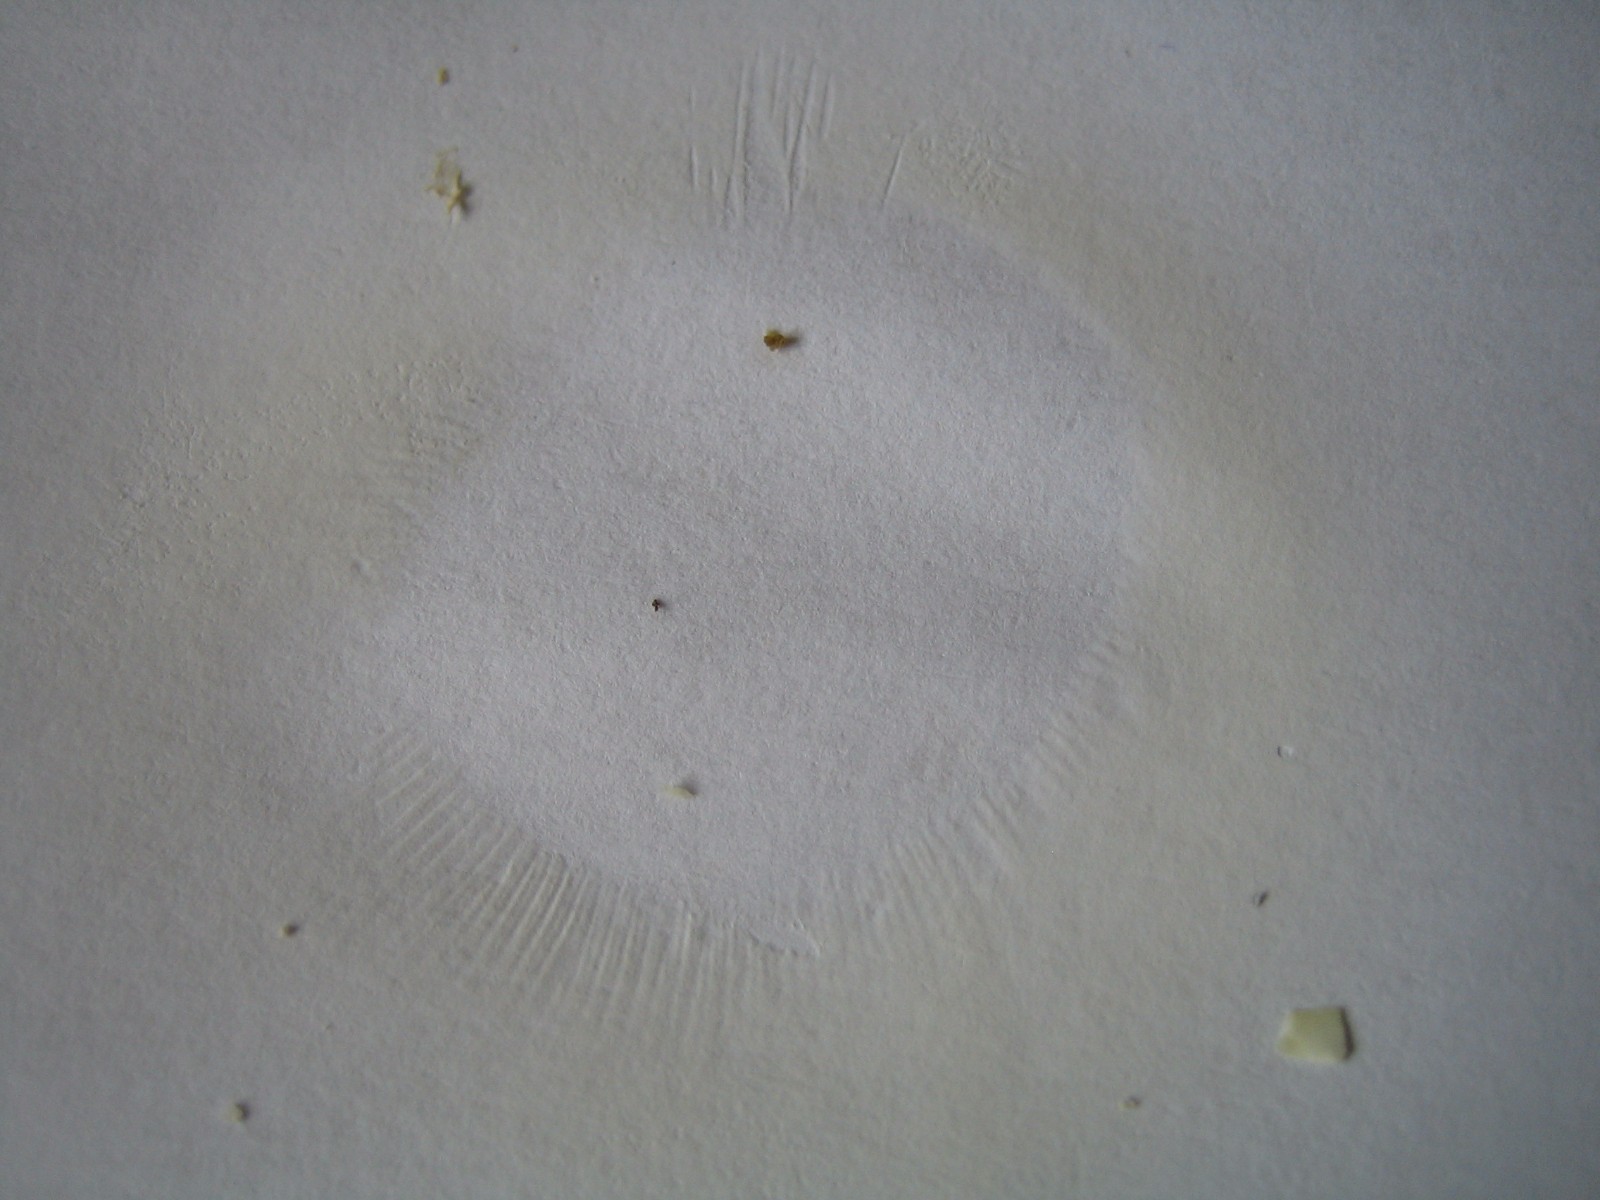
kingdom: Fungi
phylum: Basidiomycota
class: Agaricomycetes
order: Russulales
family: Russulaceae
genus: Russula
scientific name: Russula vesca
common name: spiselig skørhat
